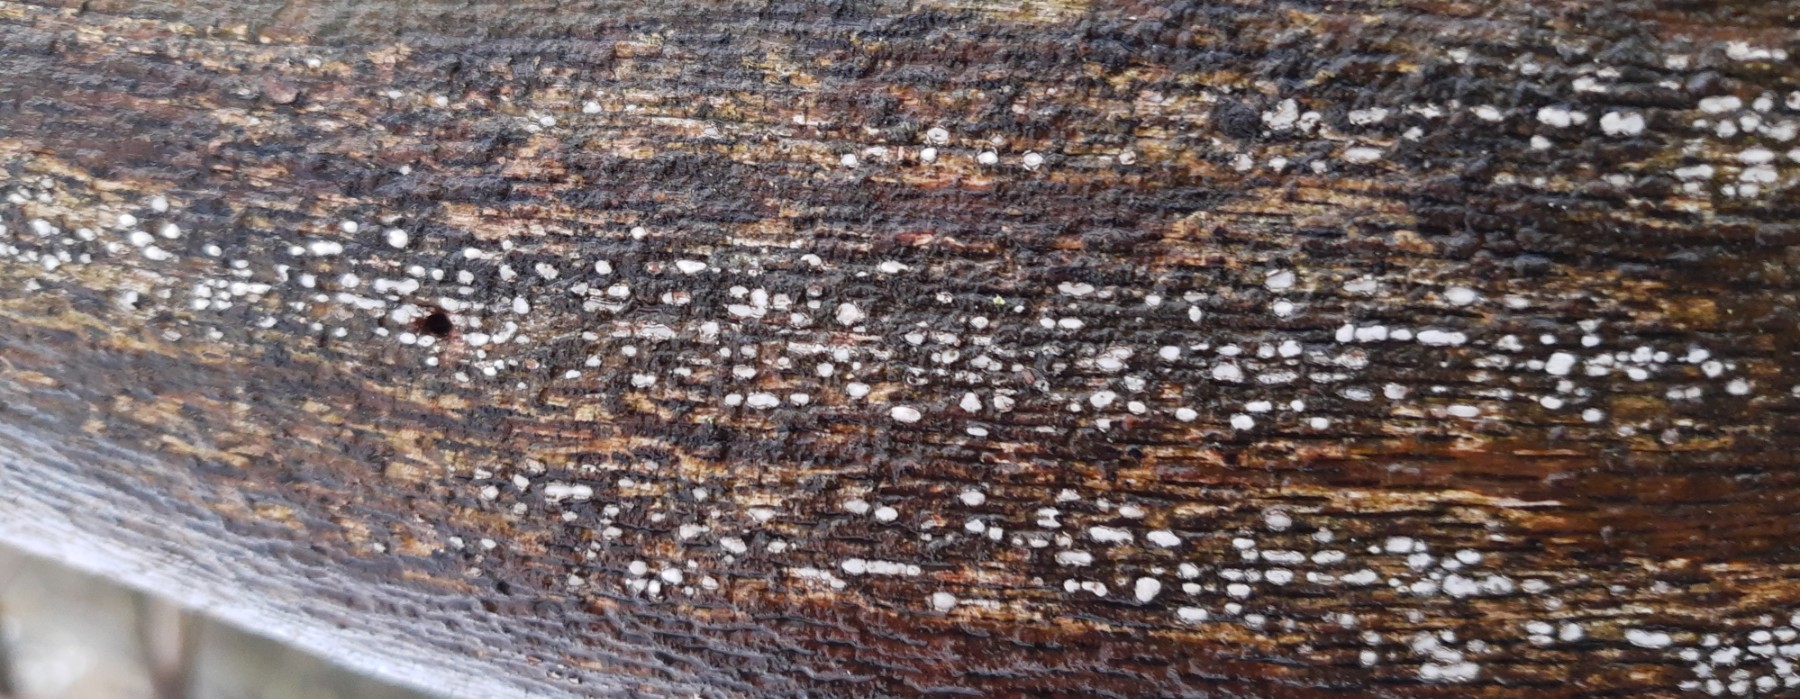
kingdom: Fungi
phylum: Ascomycota
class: Leotiomycetes
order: Chaetomellales
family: Marthamycetaceae
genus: Propolis
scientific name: Propolis farinosa
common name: almindelig vedsprængerskive
